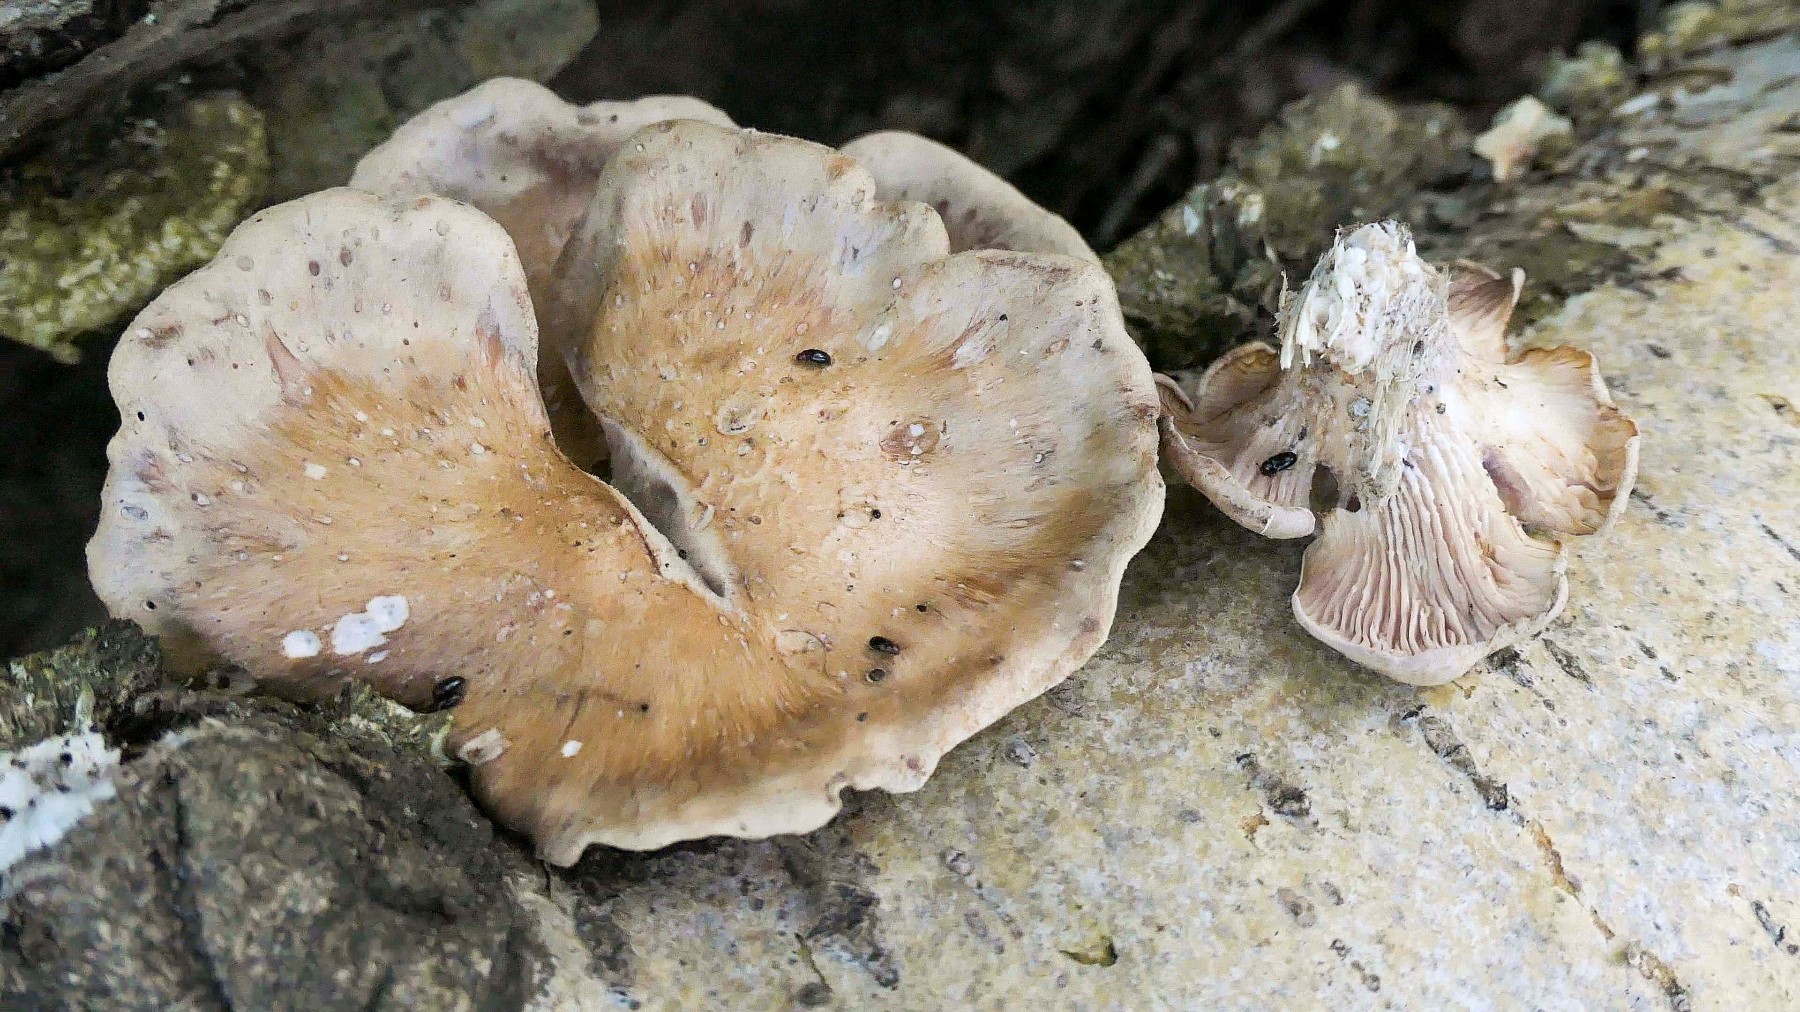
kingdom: Fungi
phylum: Basidiomycota
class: Agaricomycetes
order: Polyporales
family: Panaceae
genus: Panus
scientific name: Panus conchatus
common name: filtstokket læderhat
